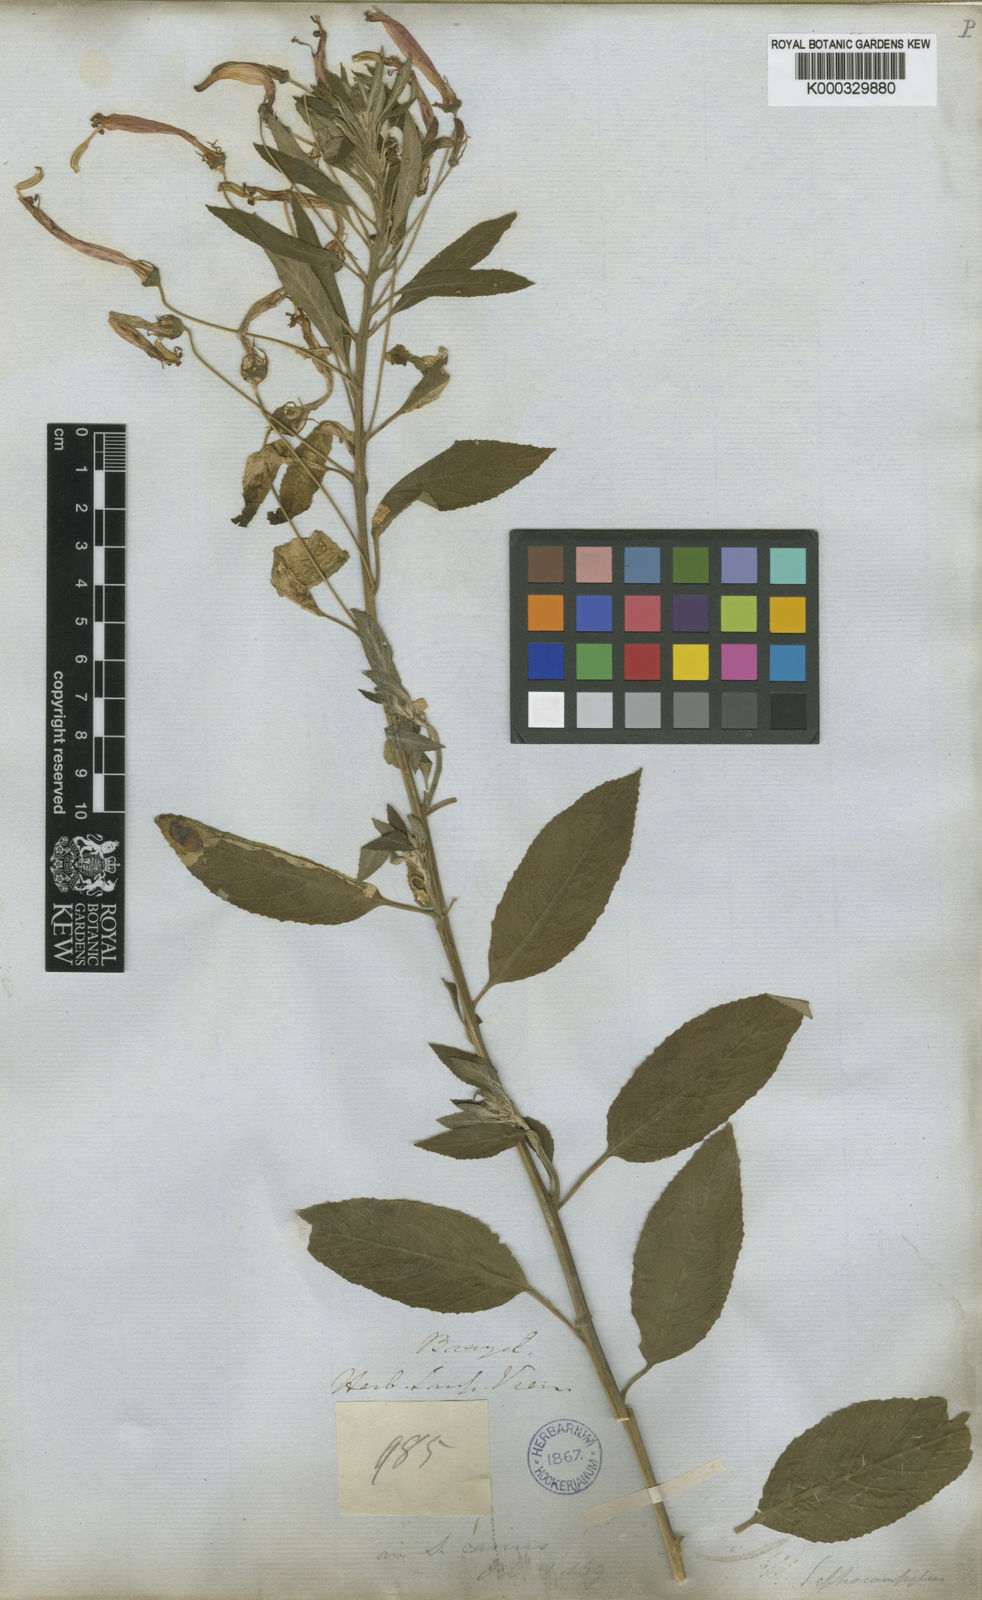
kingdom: Plantae
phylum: Tracheophyta
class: Magnoliopsida
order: Asterales
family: Campanulaceae
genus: Siphocampylus
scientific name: Siphocampylus macropodus
